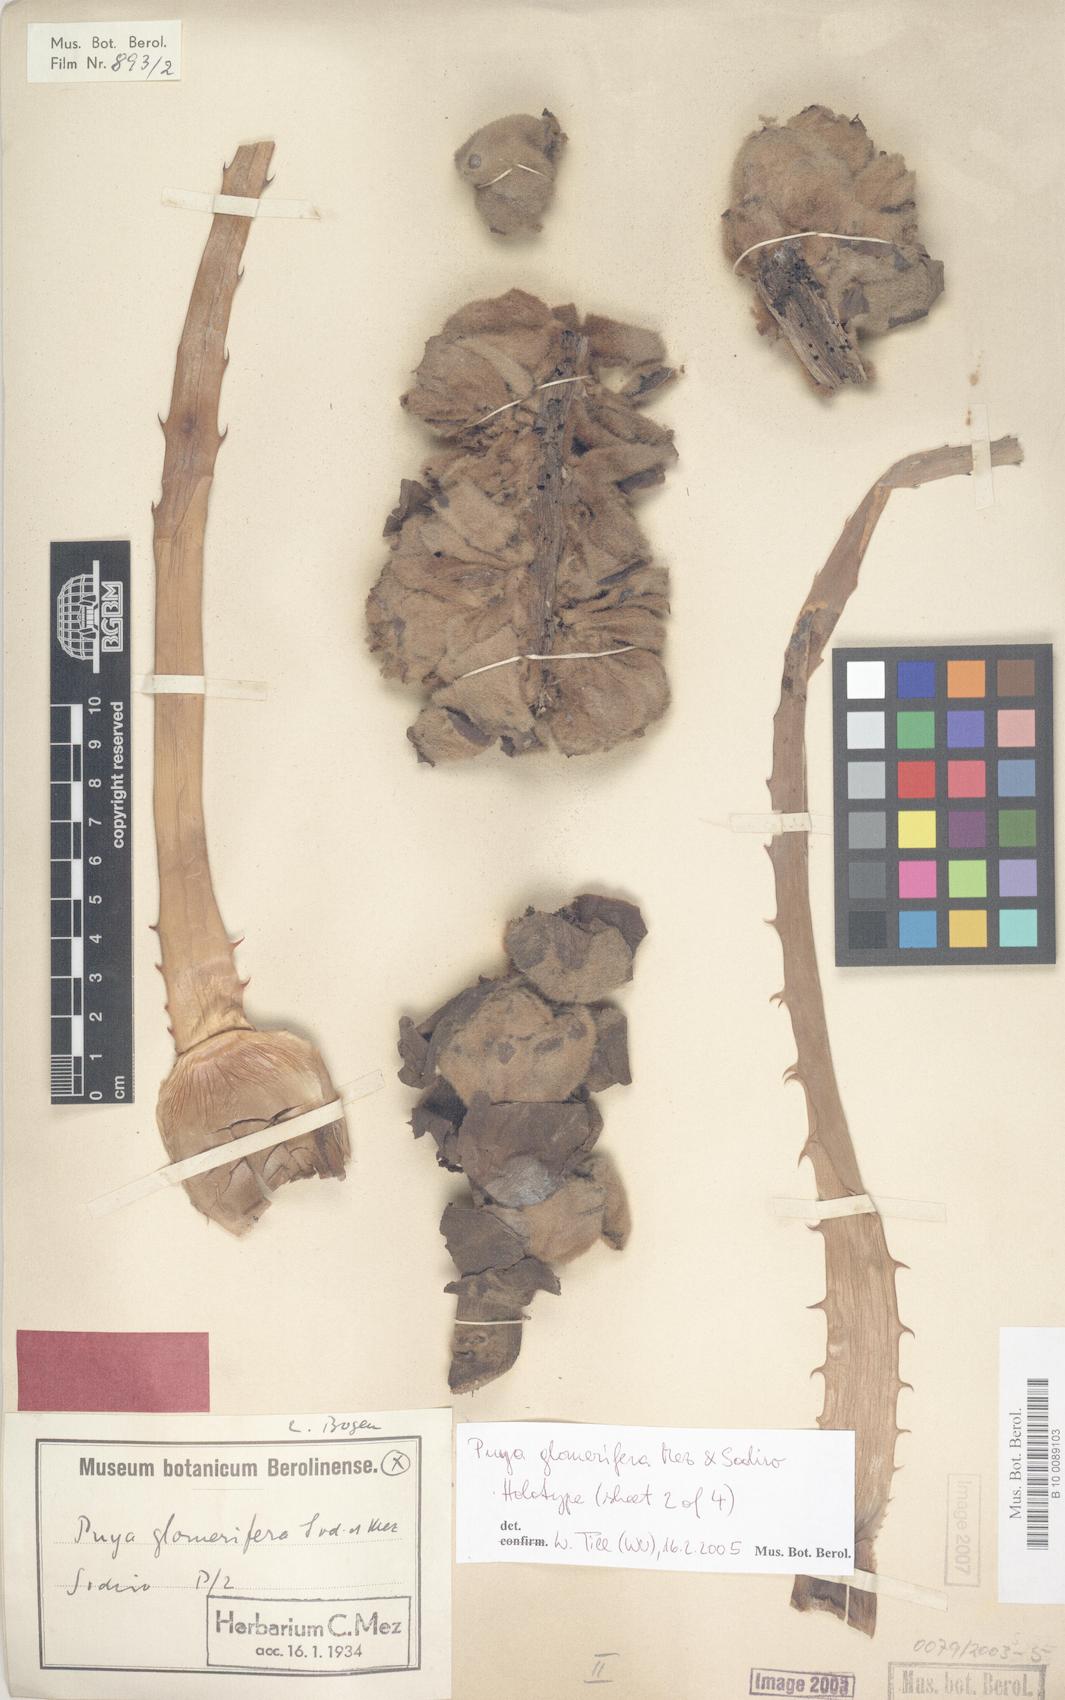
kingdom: Plantae
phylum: Tracheophyta
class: Liliopsida
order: Poales
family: Bromeliaceae
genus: Puya
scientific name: Puya glomerifera
